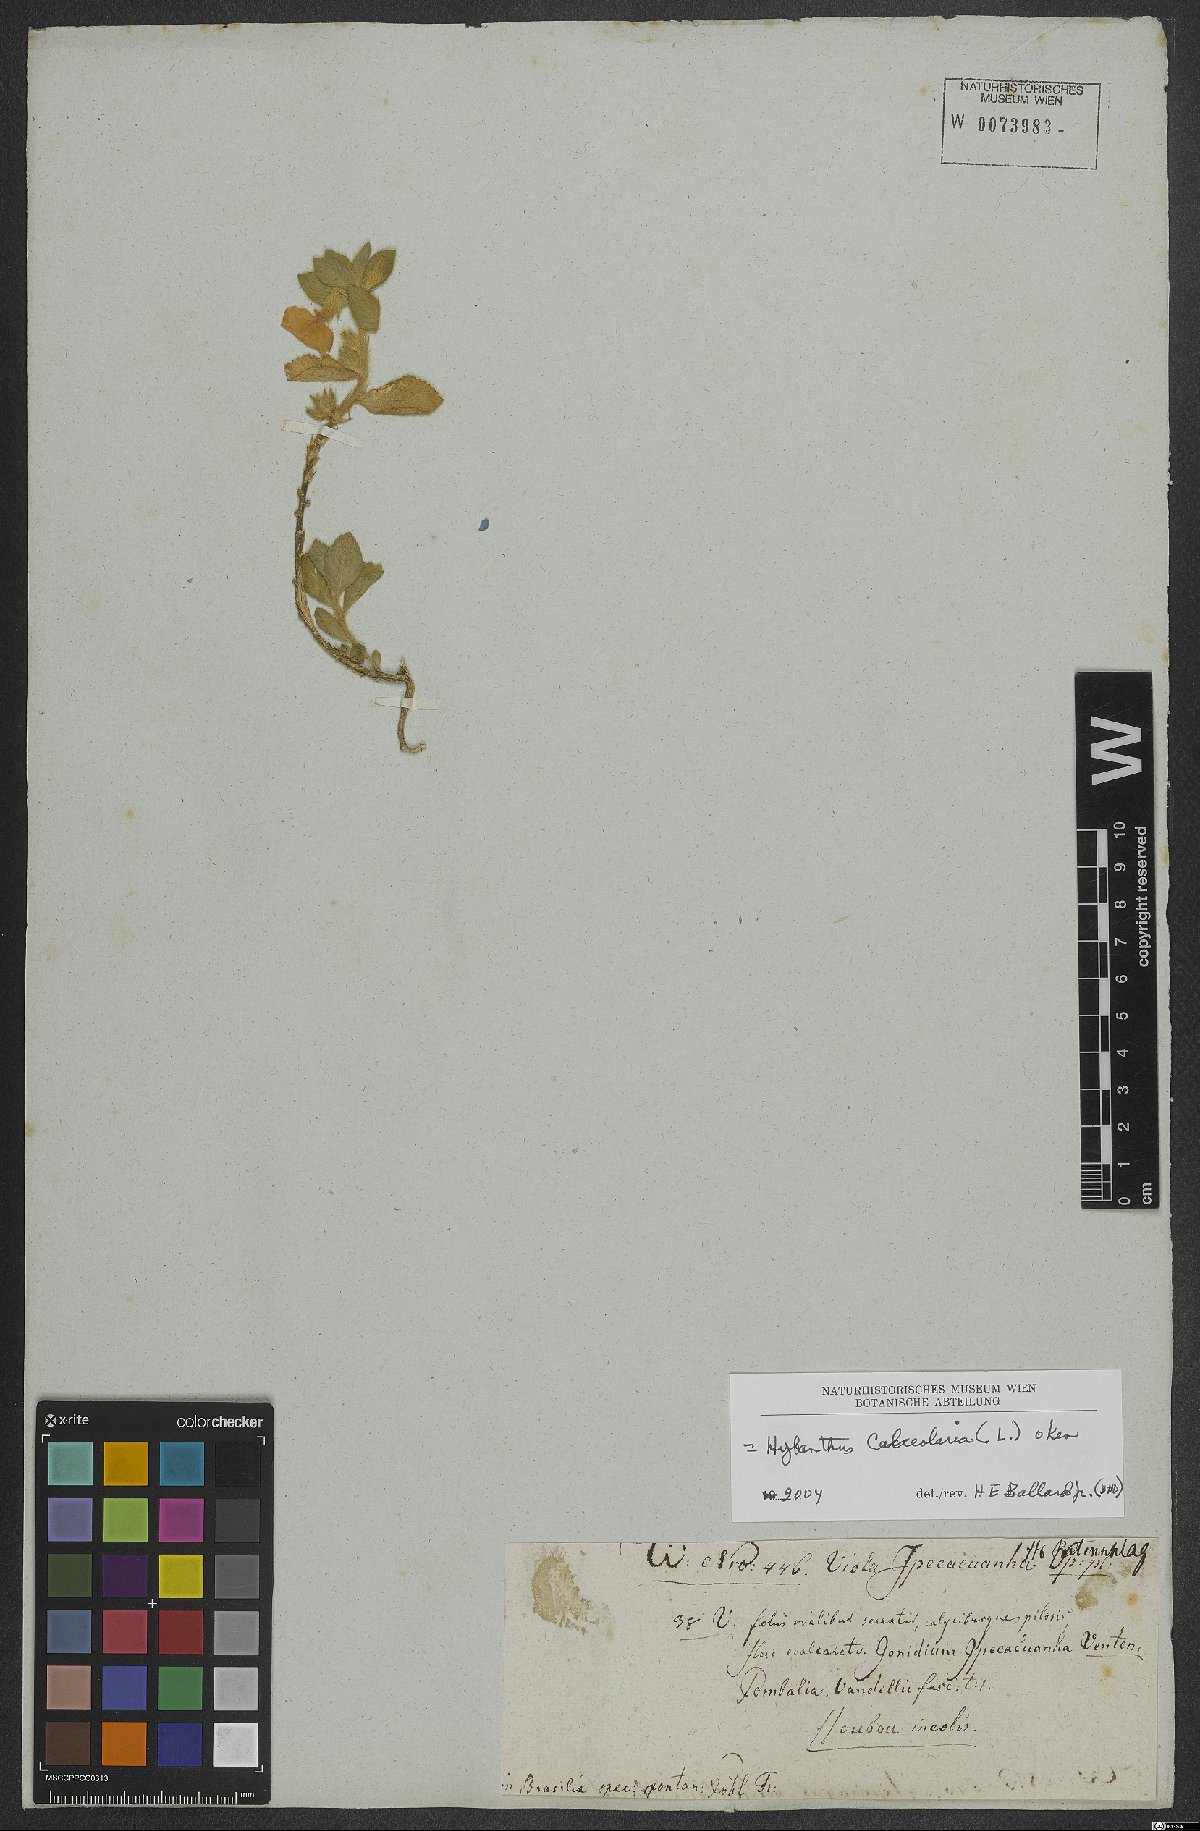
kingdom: Plantae
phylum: Tracheophyta
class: Magnoliopsida
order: Malpighiales
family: Violaceae
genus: Pombalia
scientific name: Pombalia calceolaria
